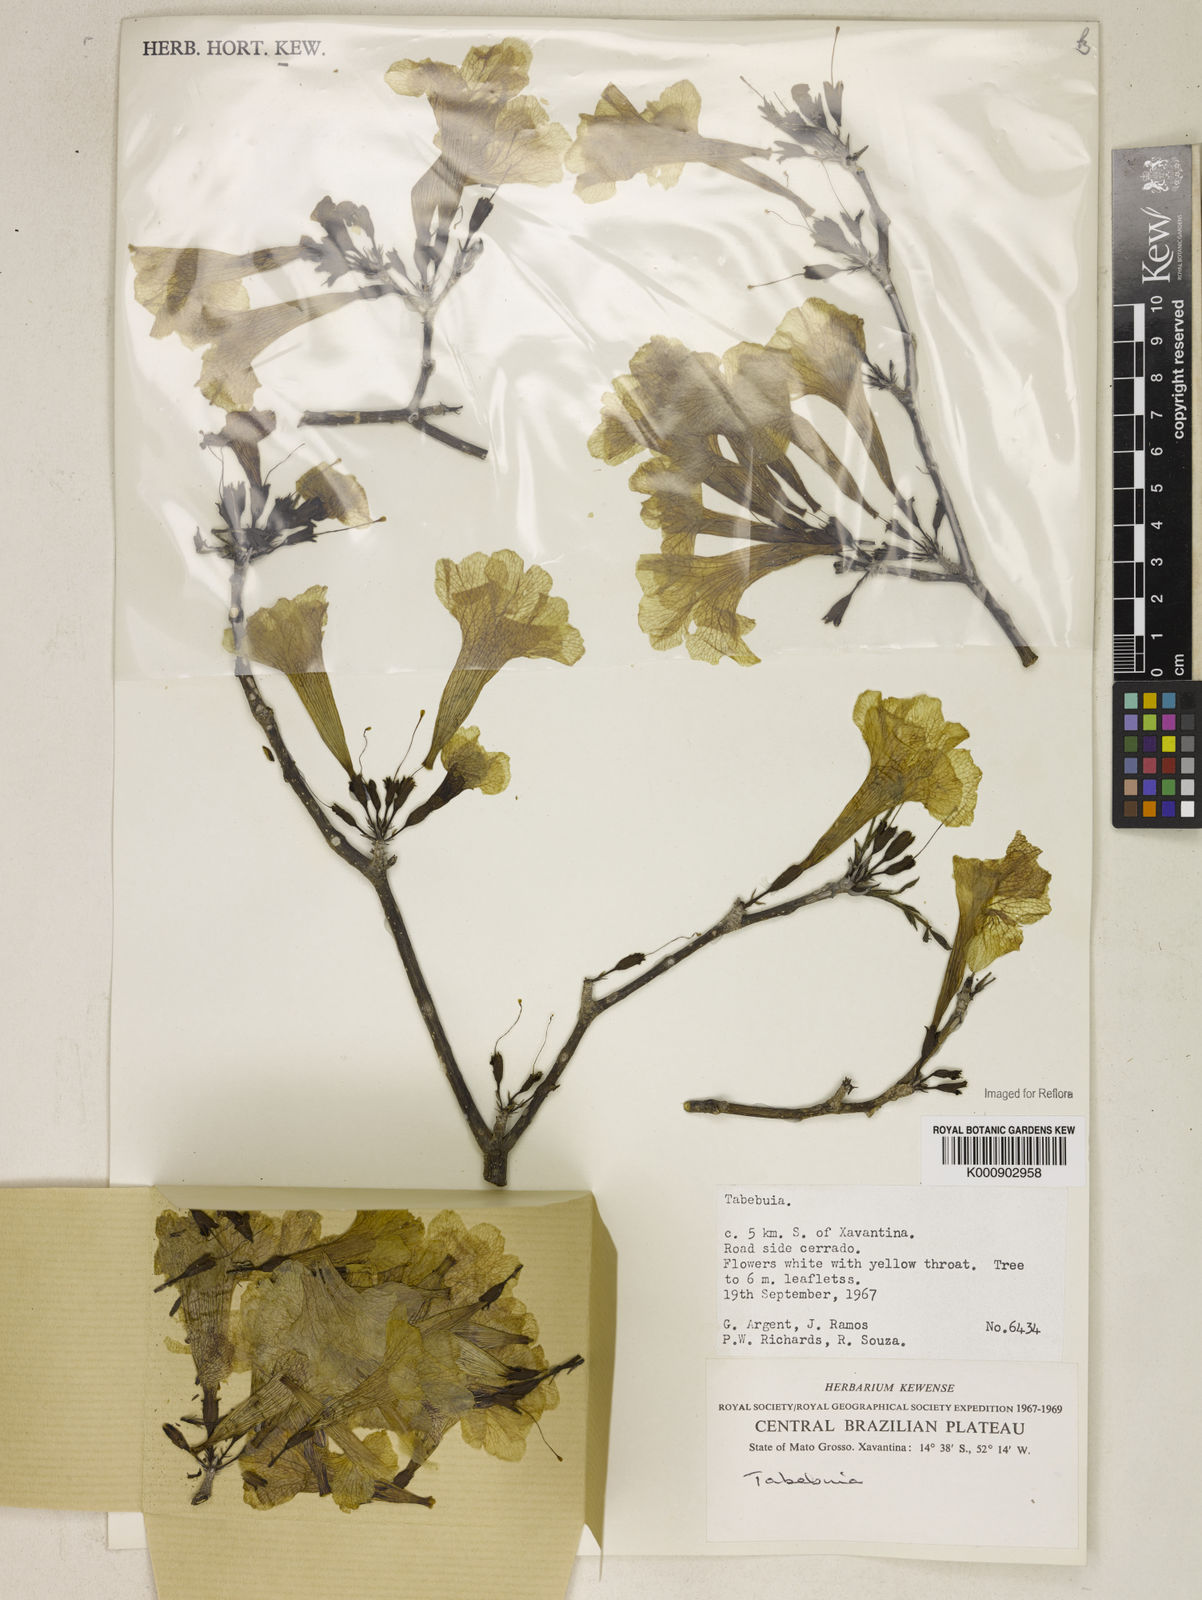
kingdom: Plantae
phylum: Tracheophyta
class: Magnoliopsida
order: Lamiales
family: Bignoniaceae
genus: Tabebuia
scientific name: Tabebuia
